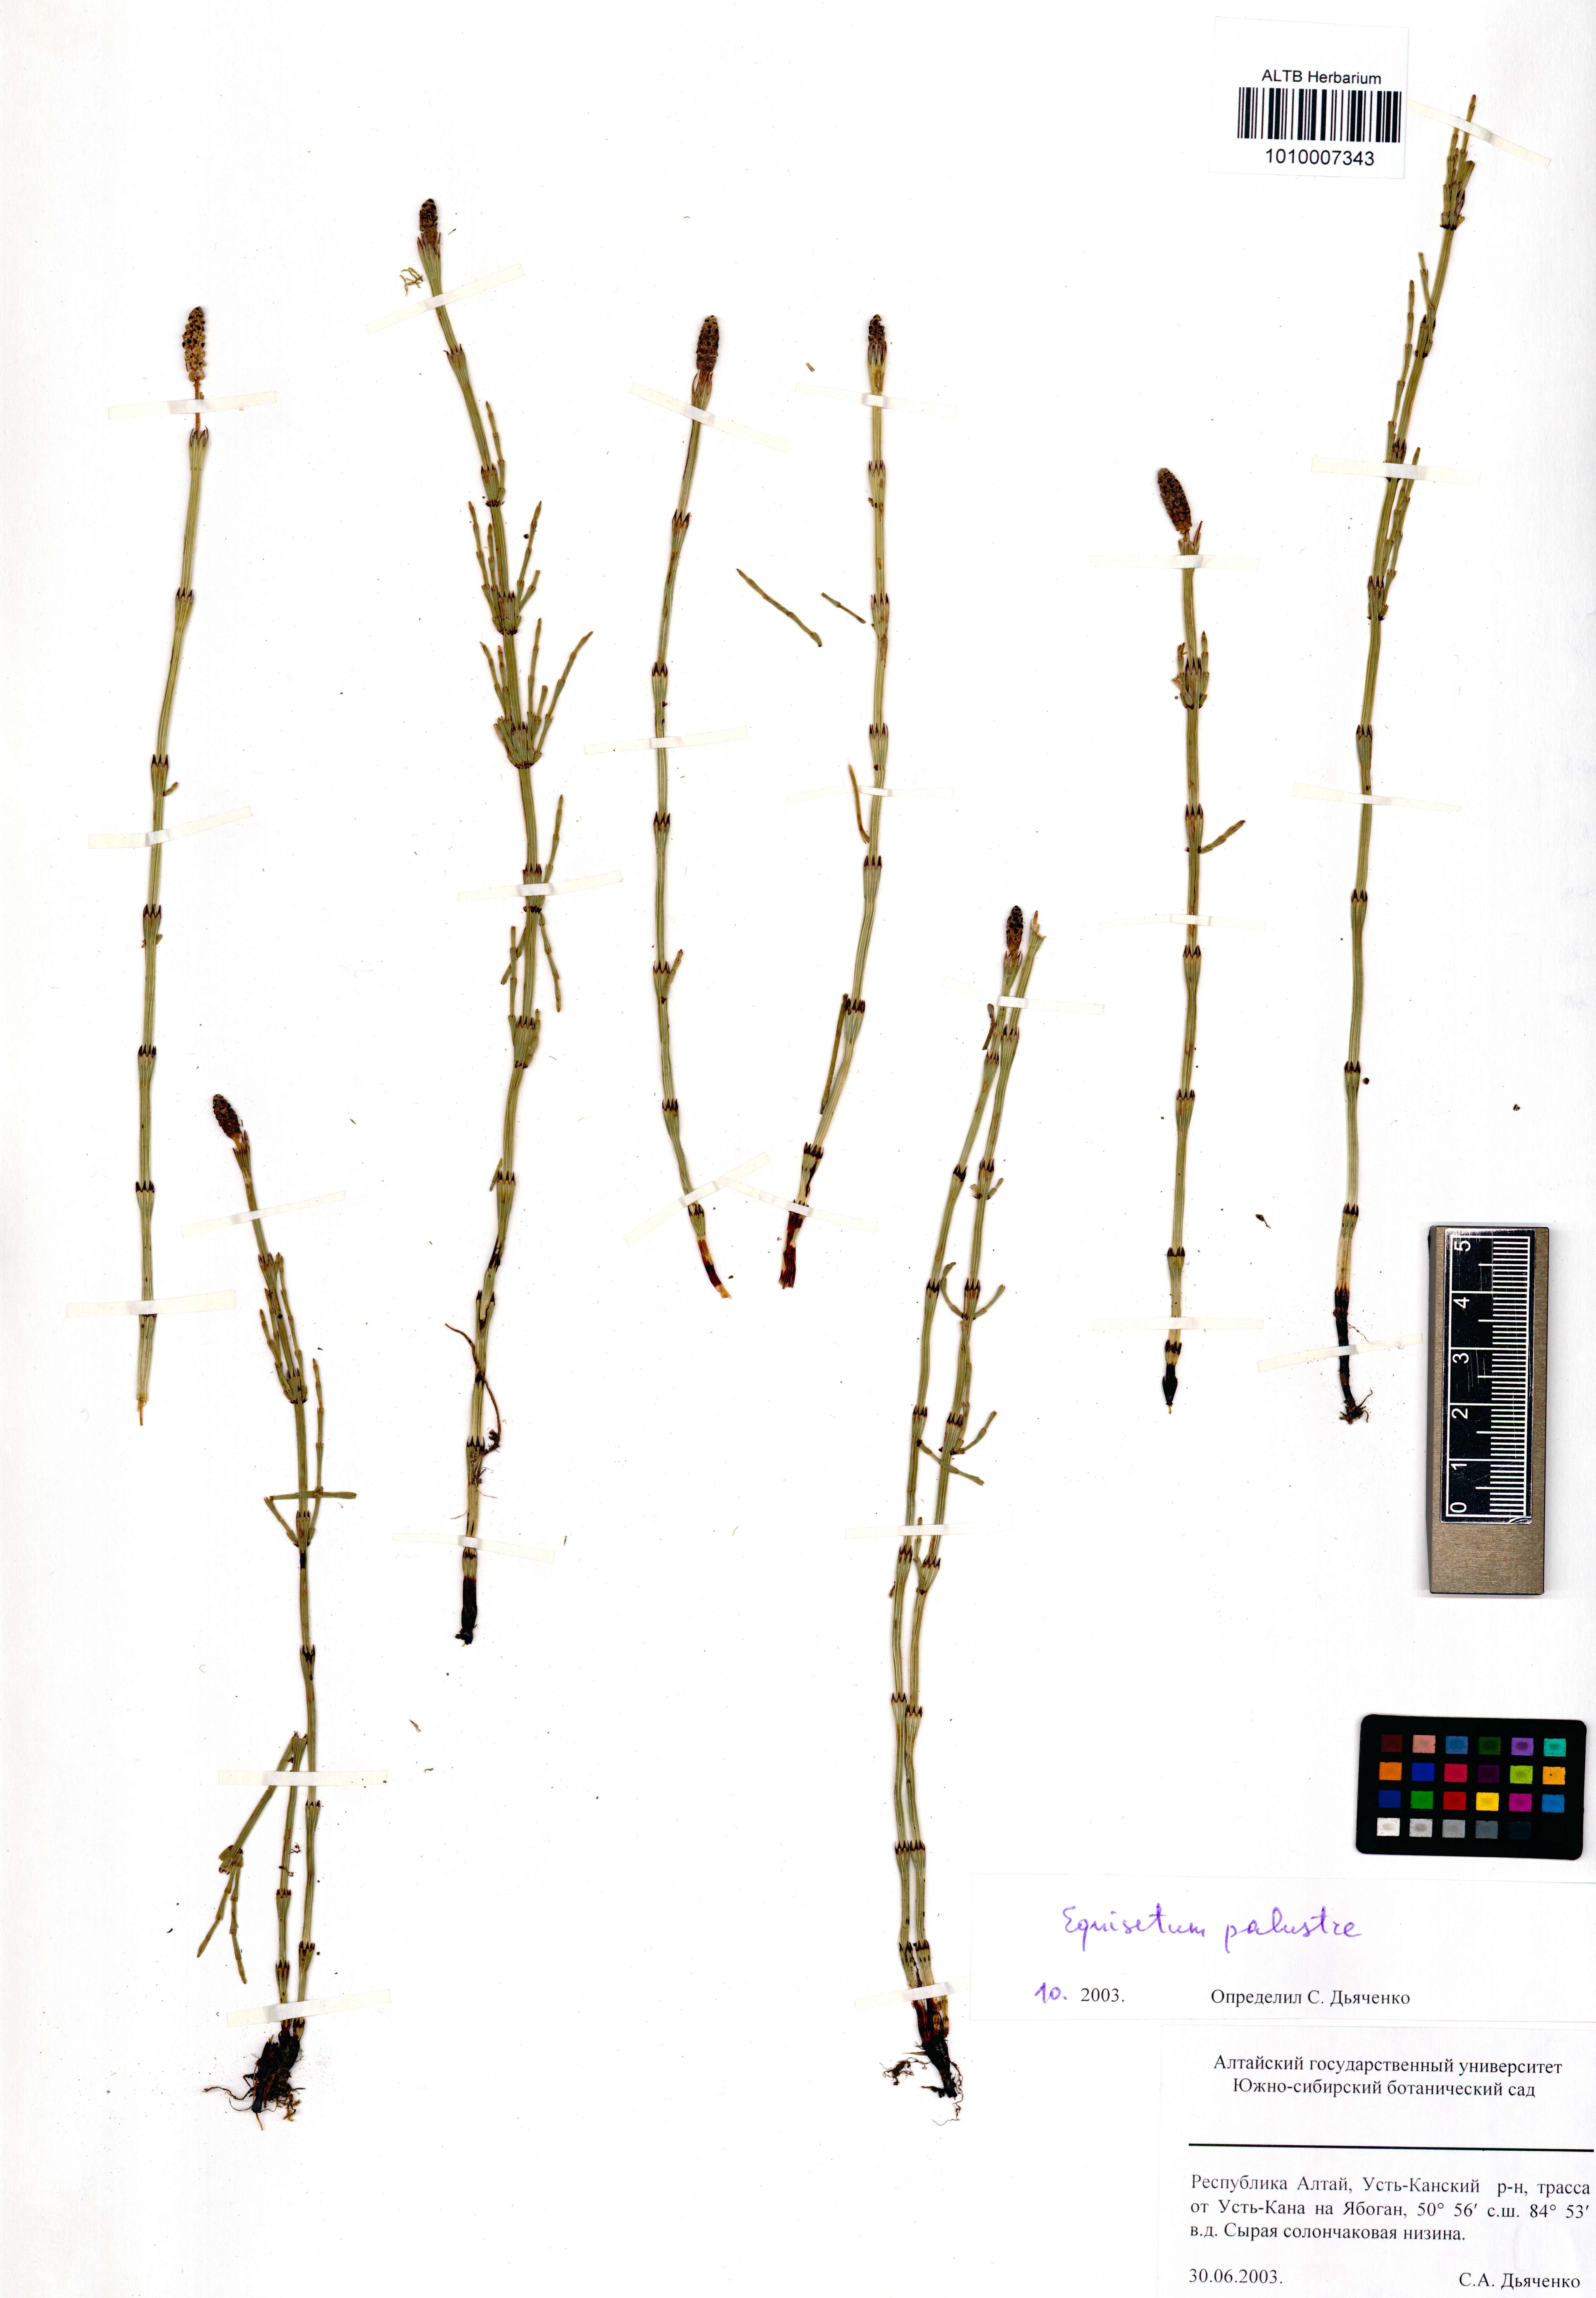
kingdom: Plantae
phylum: Tracheophyta
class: Polypodiopsida
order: Equisetales
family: Equisetaceae
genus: Equisetum
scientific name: Equisetum palustre
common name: Marsh horsetail
